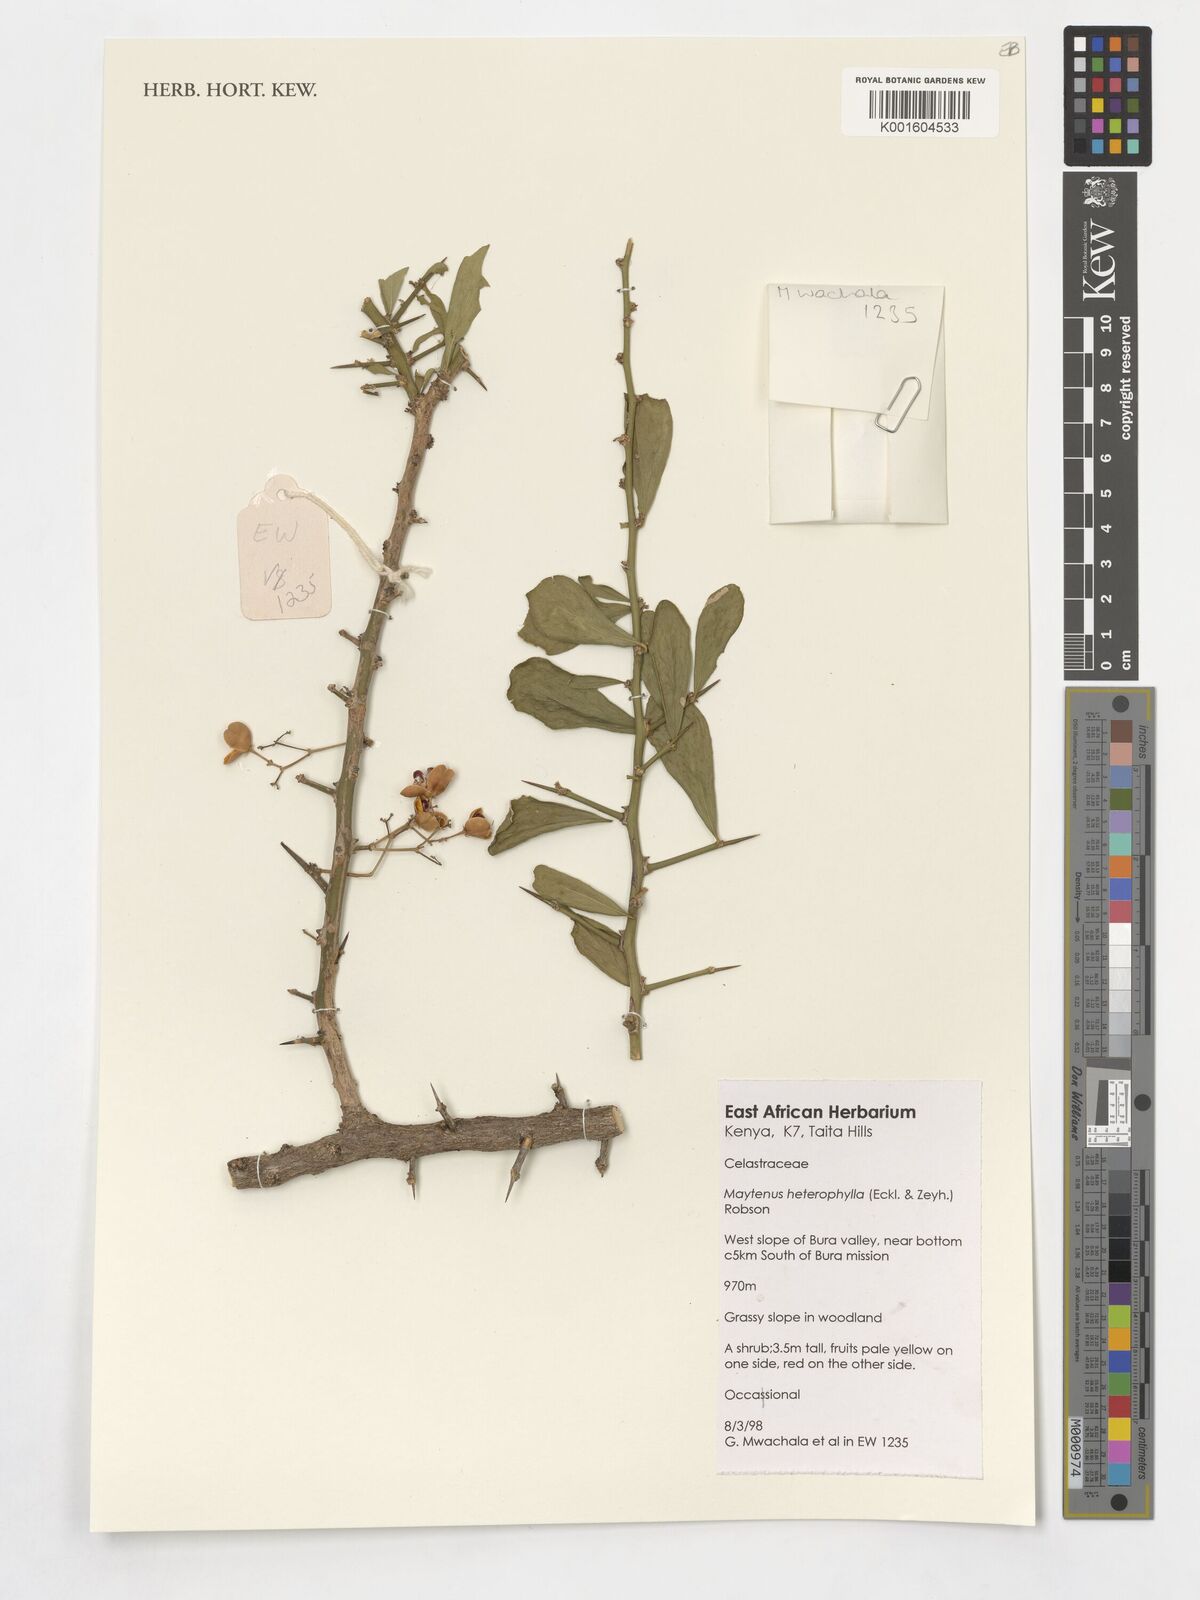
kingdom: Plantae
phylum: Tracheophyta
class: Magnoliopsida
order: Celastrales
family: Celastraceae
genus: Gymnosporia
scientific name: Gymnosporia heterophylla
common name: Angle-stem spikethorn
